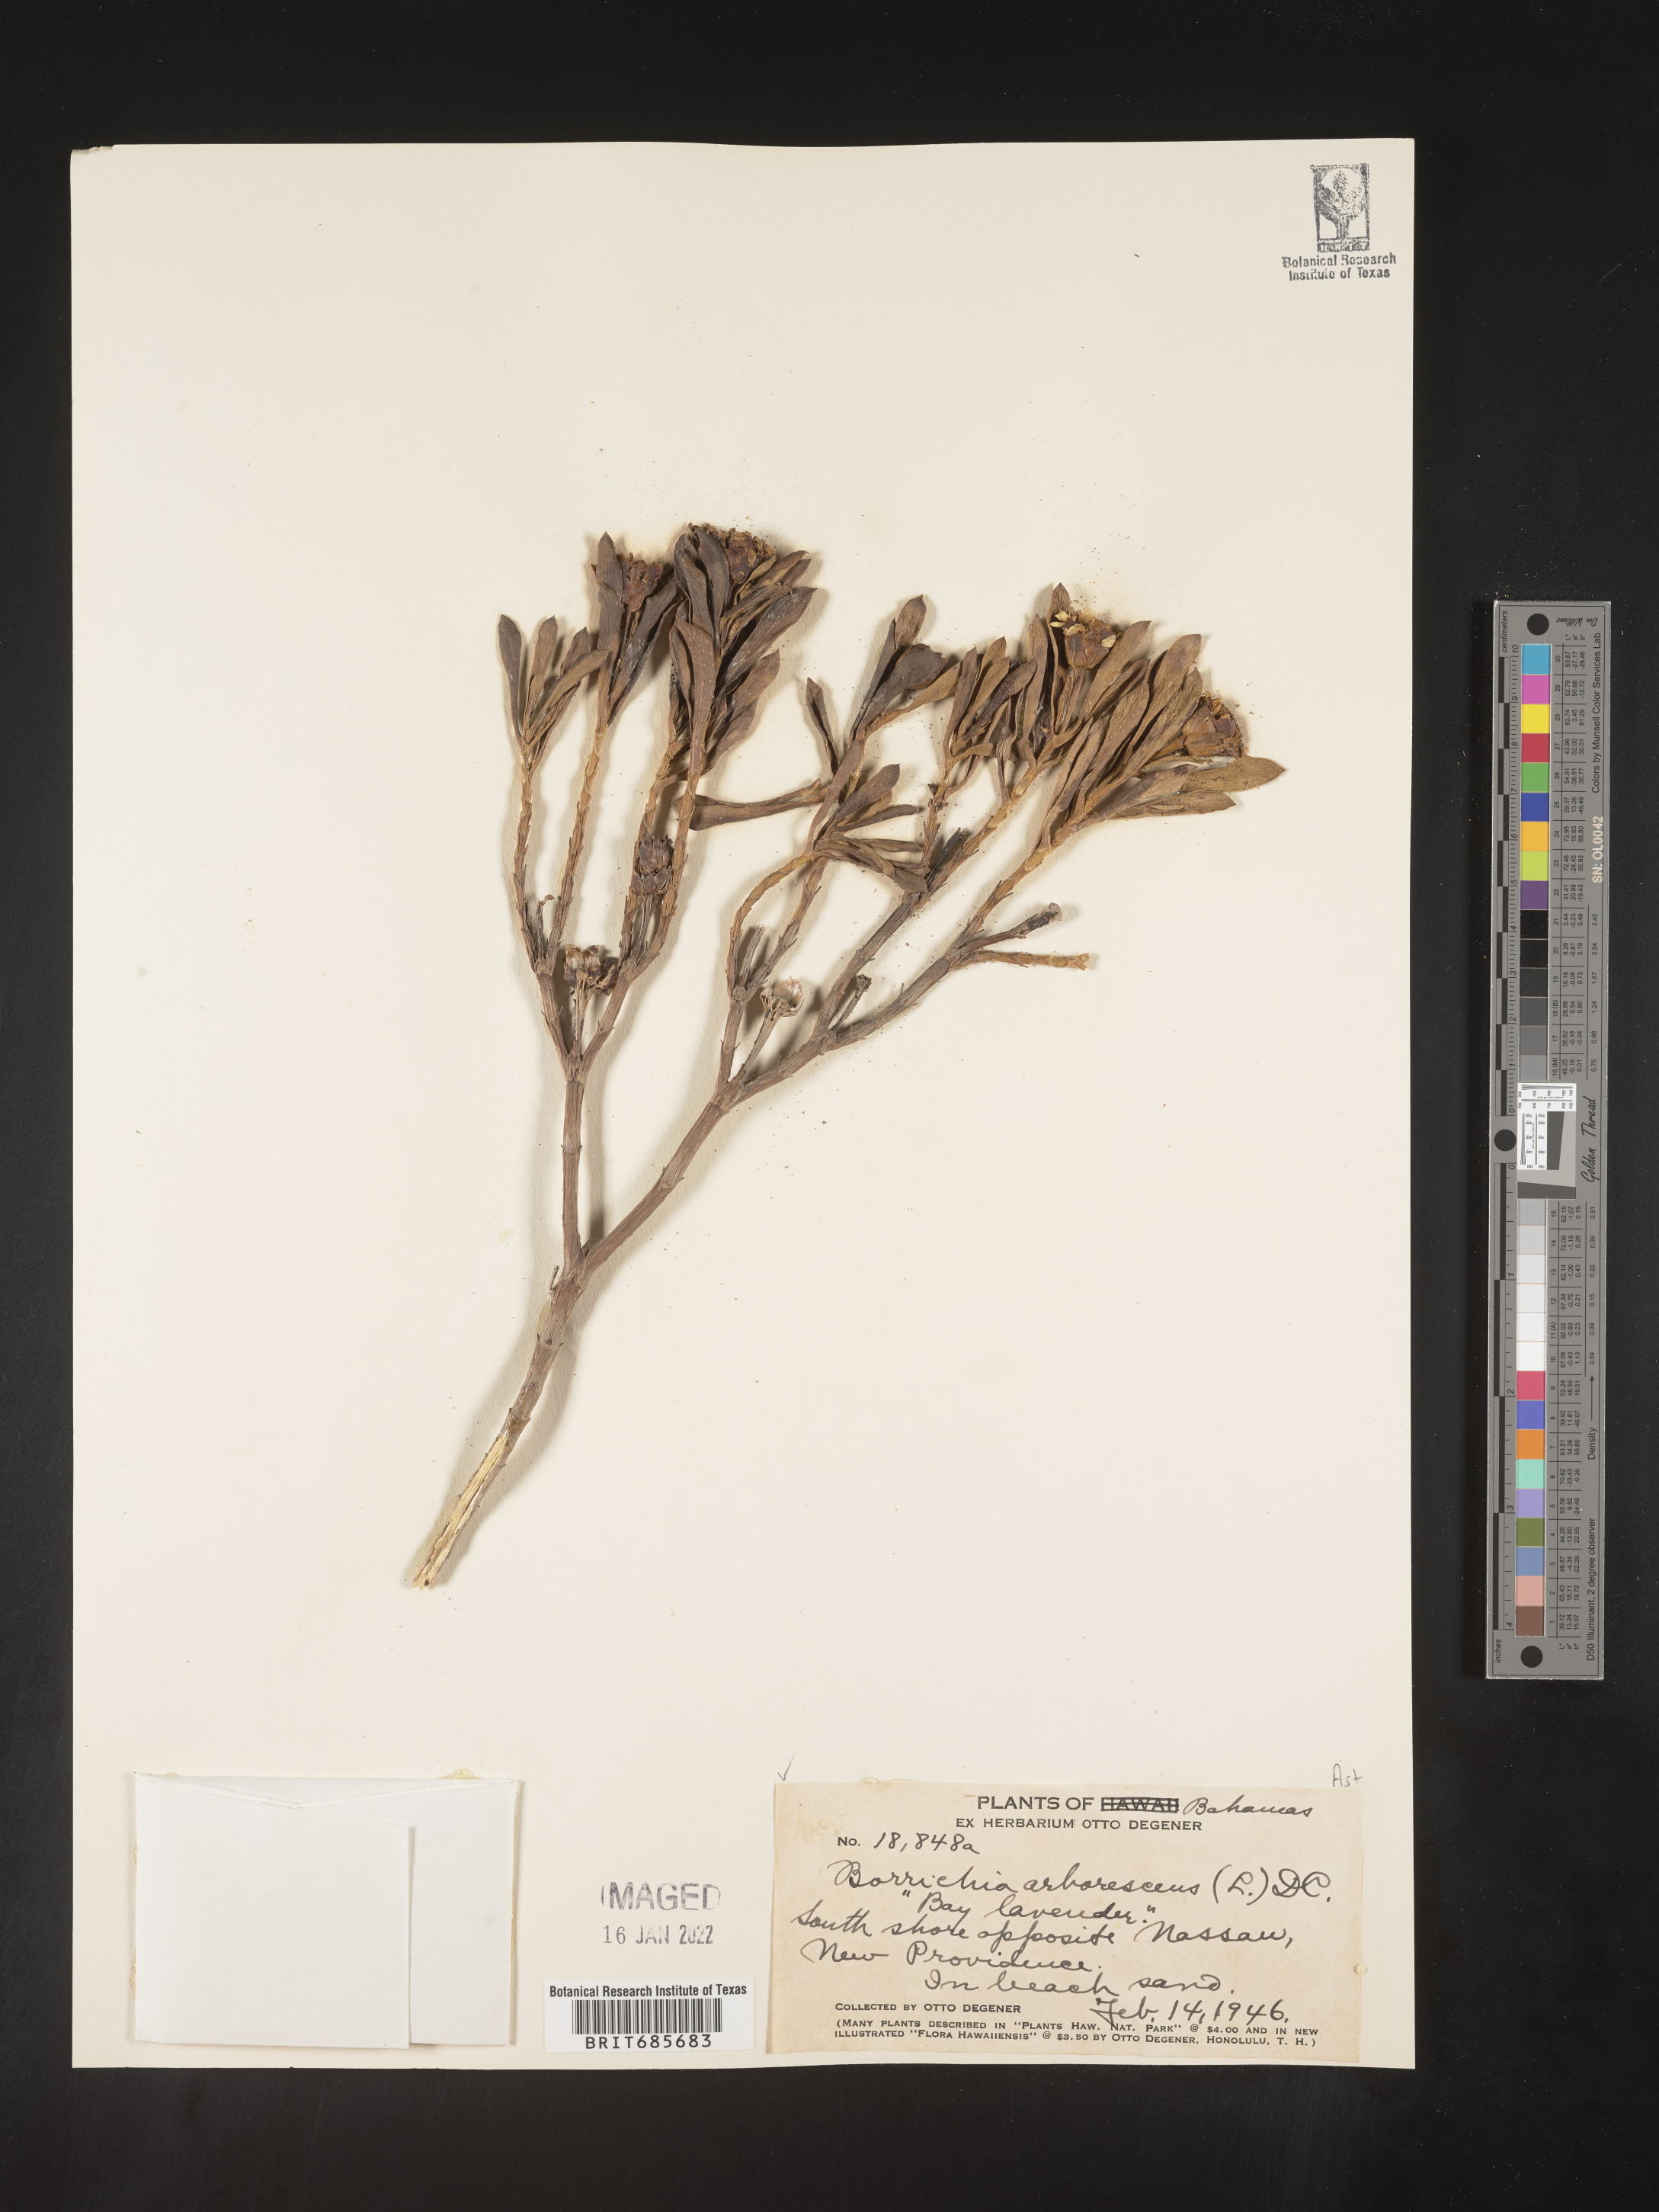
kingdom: Plantae
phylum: Tracheophyta
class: Magnoliopsida
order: Asterales
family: Asteraceae
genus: Borrichia
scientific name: Borrichia
